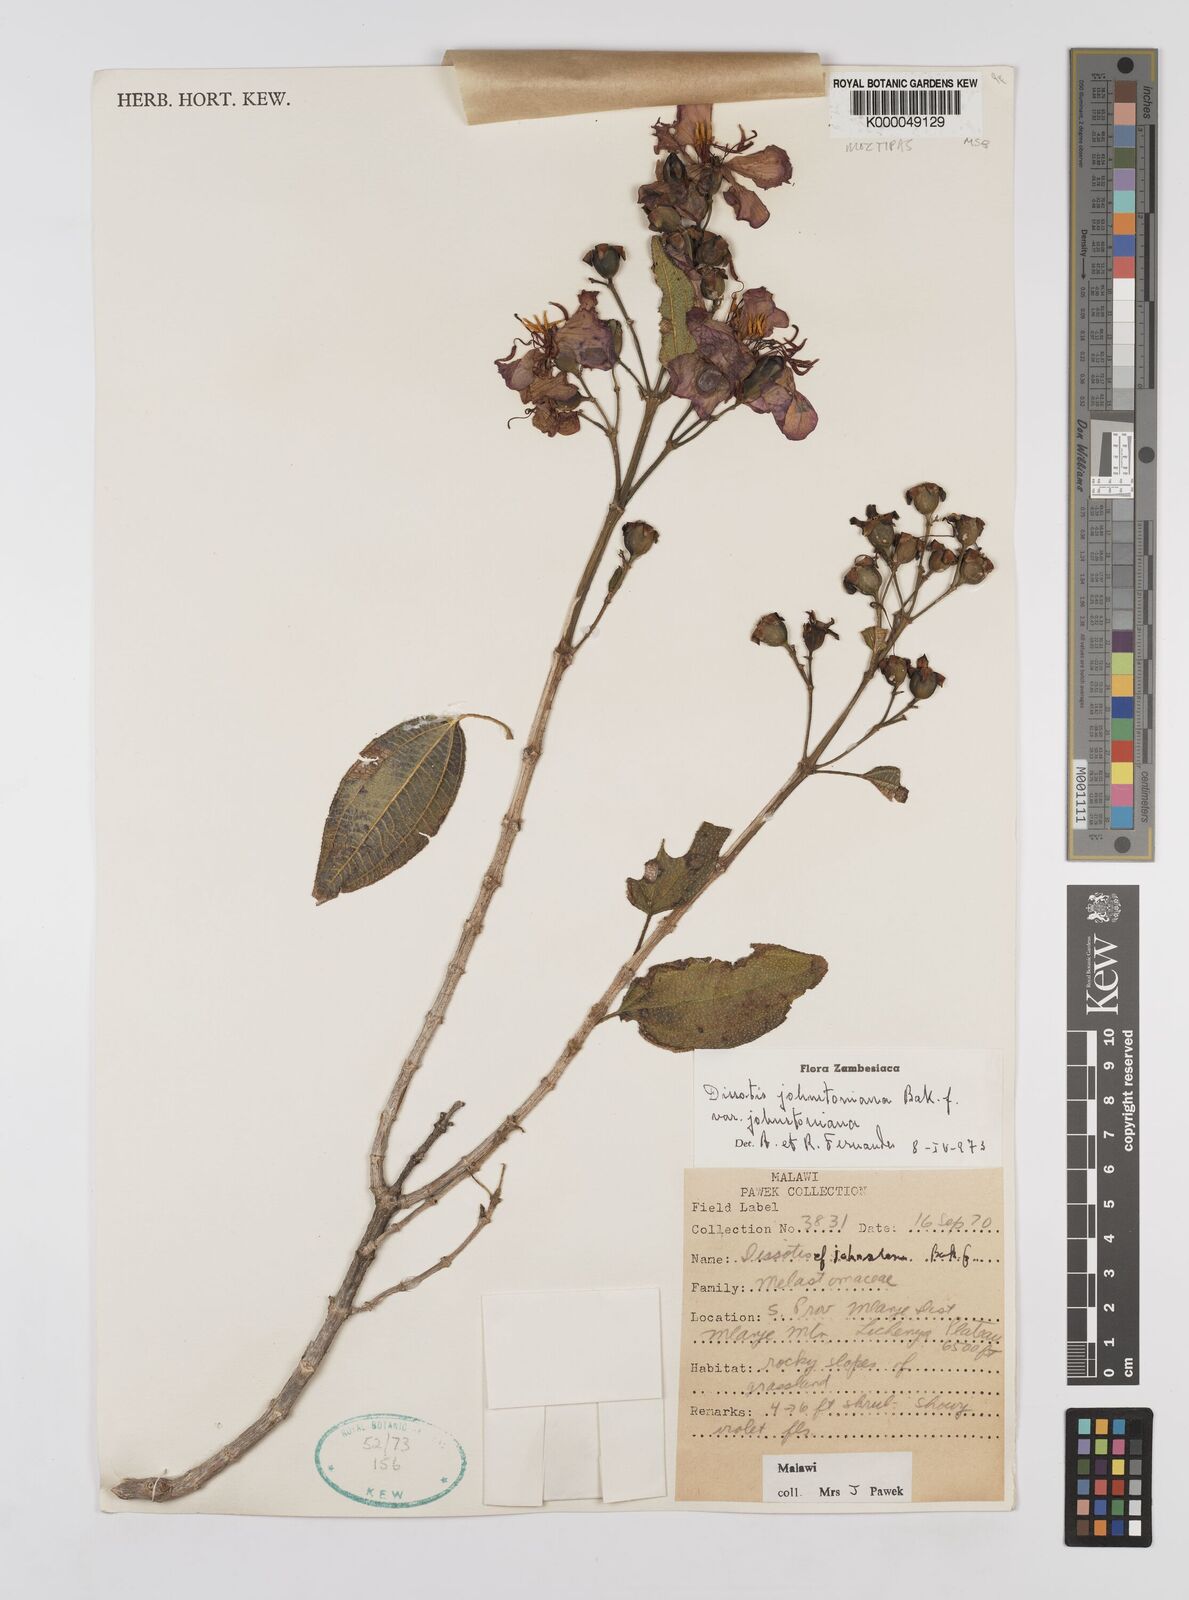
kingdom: Plantae
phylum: Tracheophyta
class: Magnoliopsida
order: Myrtales
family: Melastomataceae
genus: Dissotidendron
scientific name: Dissotidendron johnstonianum
